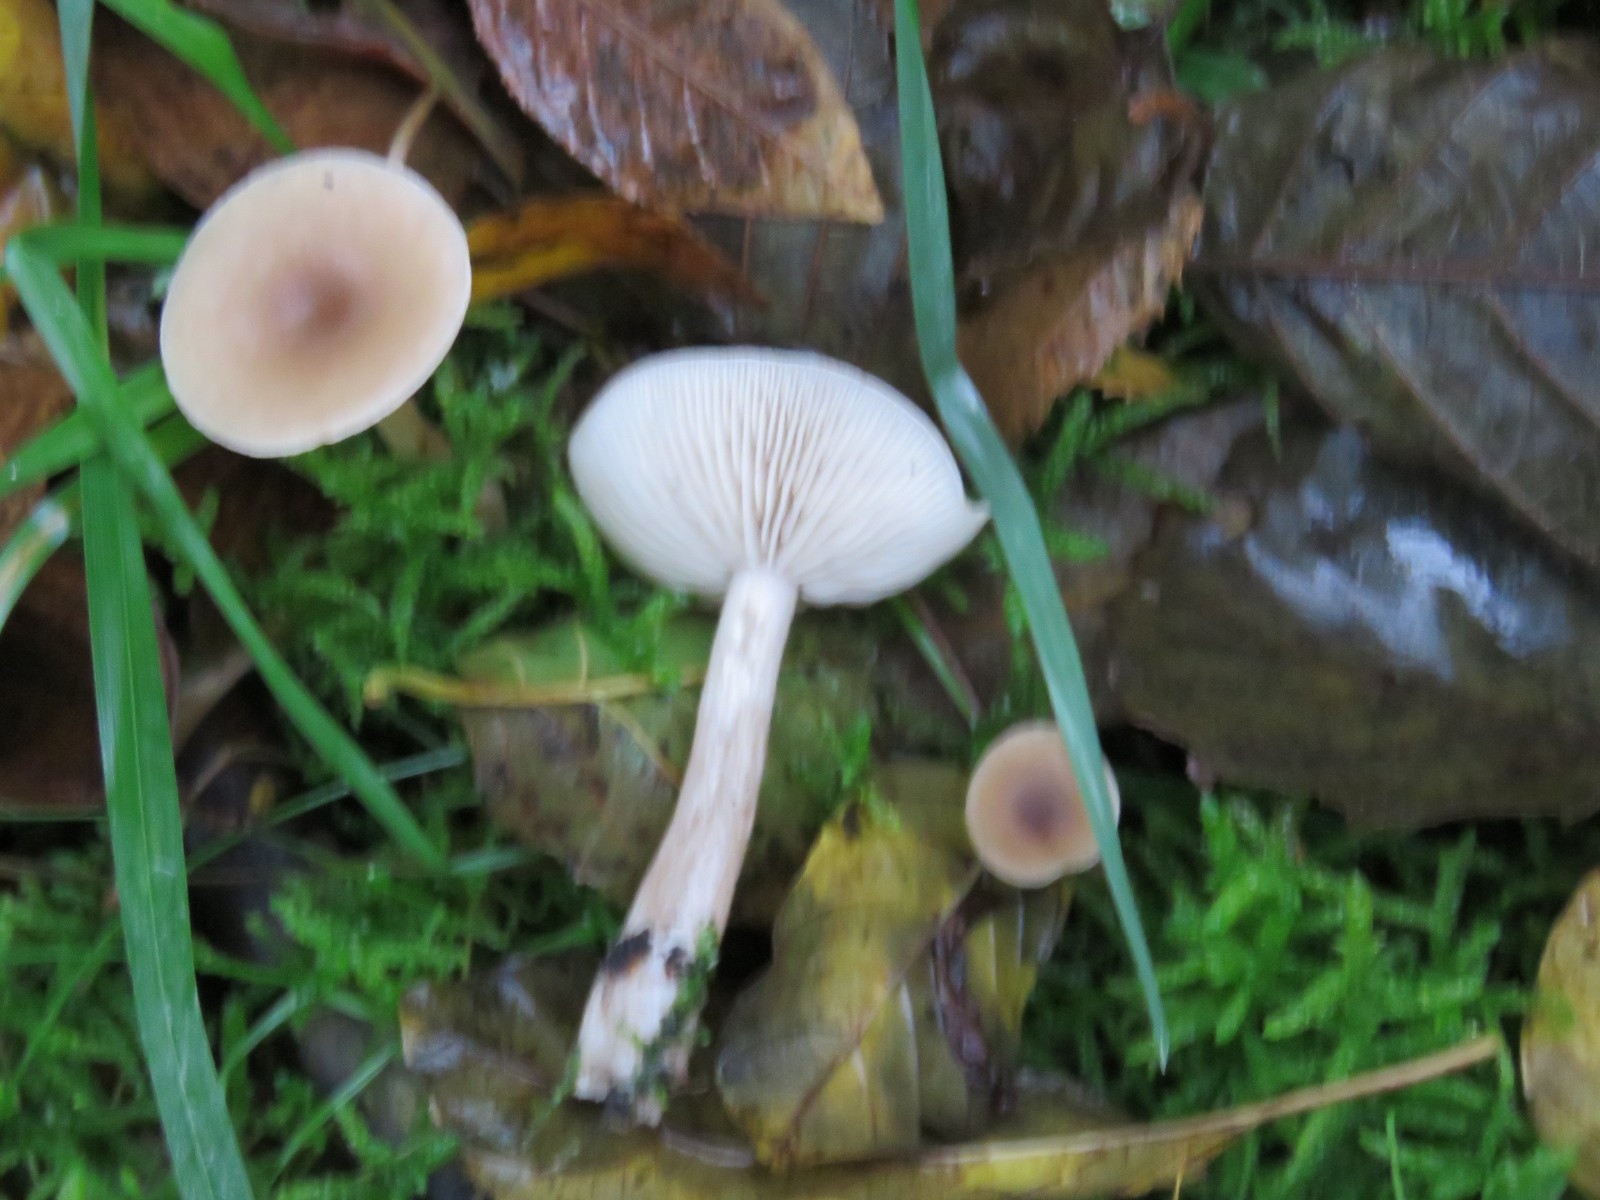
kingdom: Fungi
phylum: Basidiomycota
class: Agaricomycetes
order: Agaricales
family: Tricholomataceae
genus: Clitocybe
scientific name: Clitocybe fragrans
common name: vellugtende tragthat
